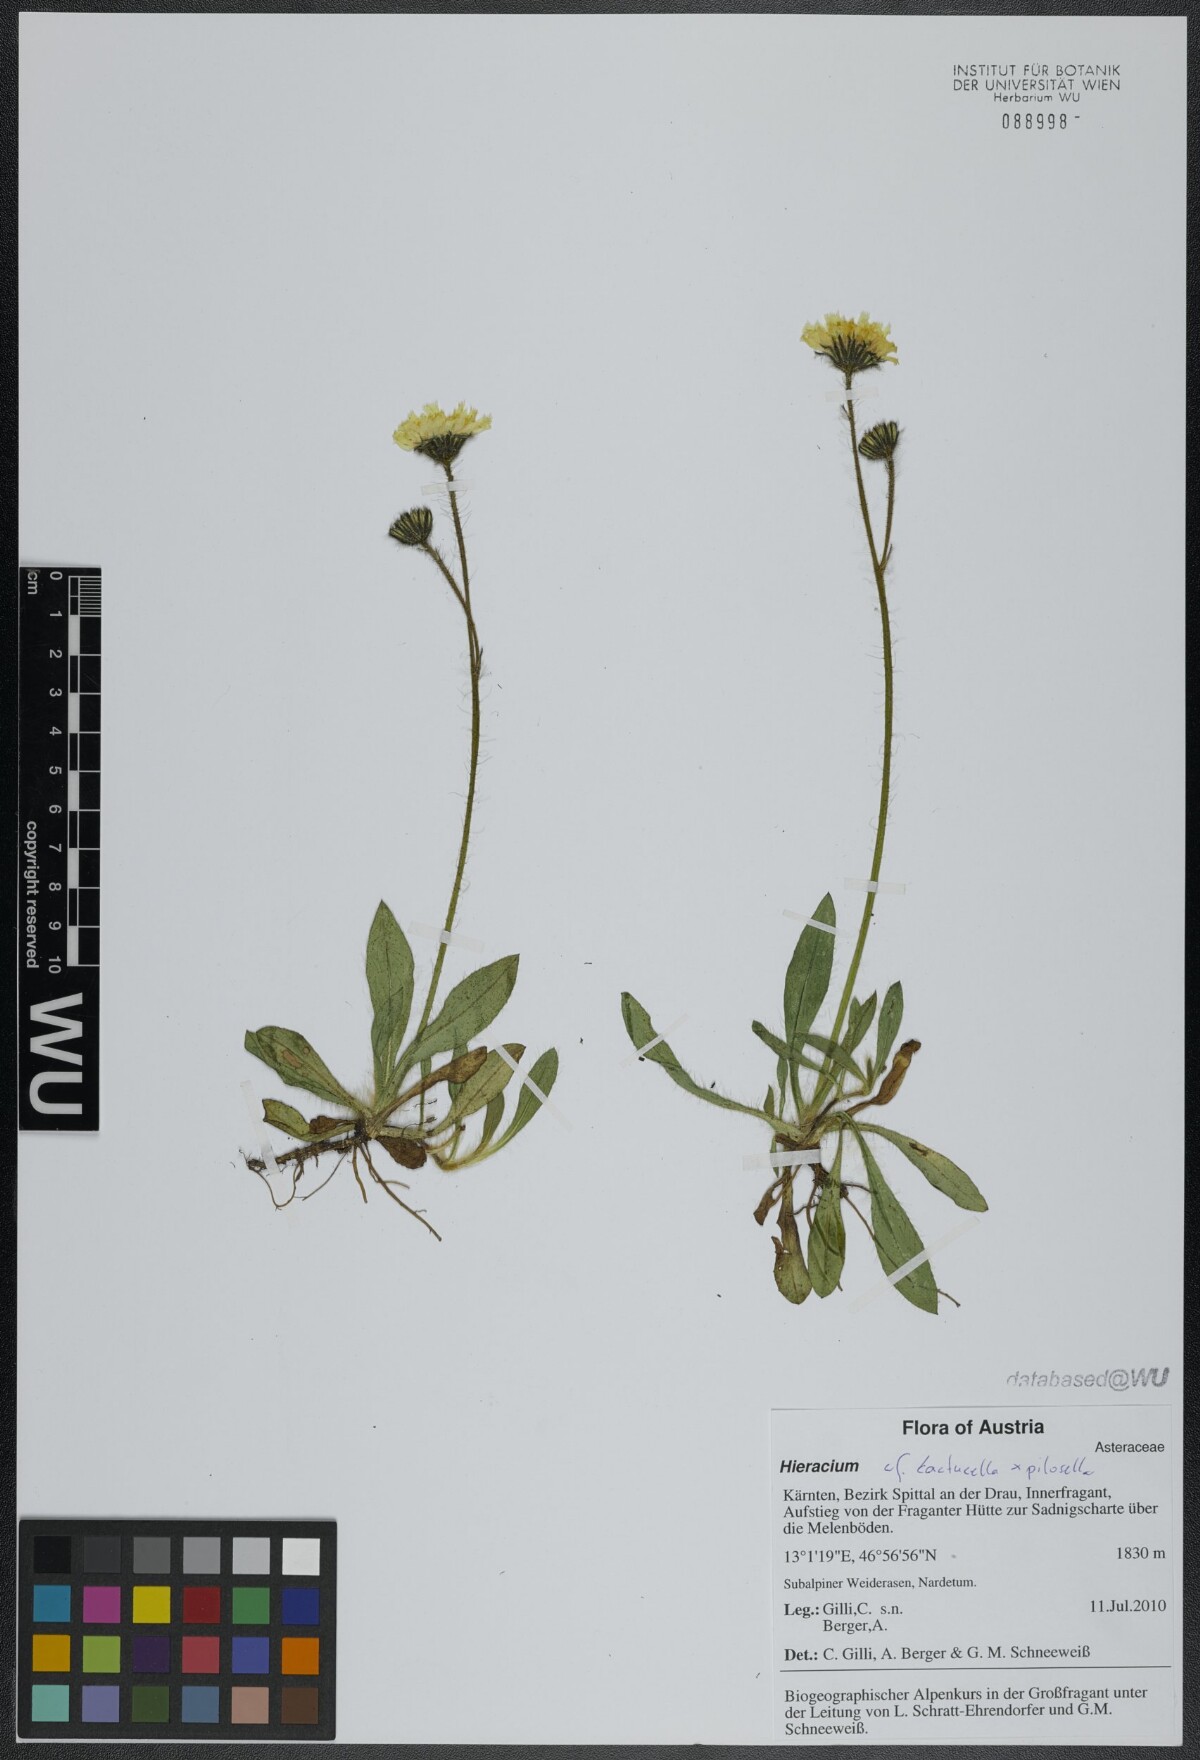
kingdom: Plantae
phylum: Tracheophyta
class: Magnoliopsida
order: Asterales
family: Asteraceae
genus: Hieracium
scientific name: Hieracium
